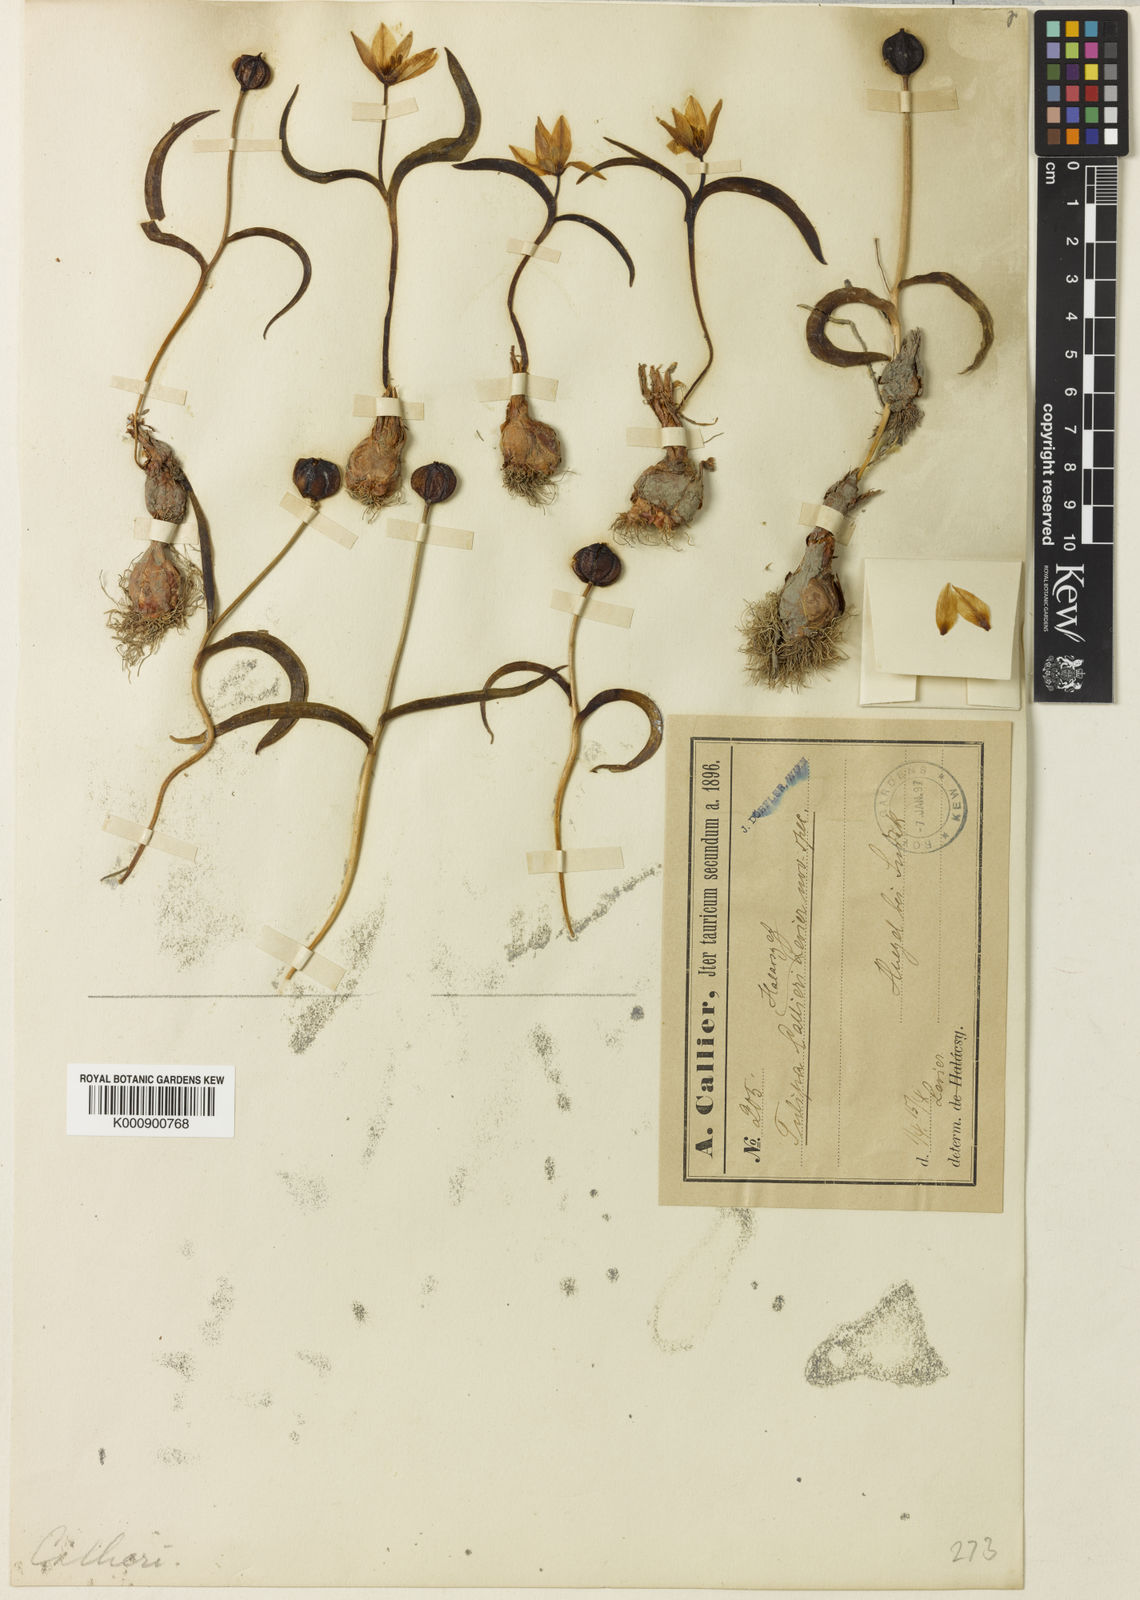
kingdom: Plantae
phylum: Tracheophyta
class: Liliopsida
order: Liliales
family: Liliaceae
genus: Tulipa
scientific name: Tulipa
